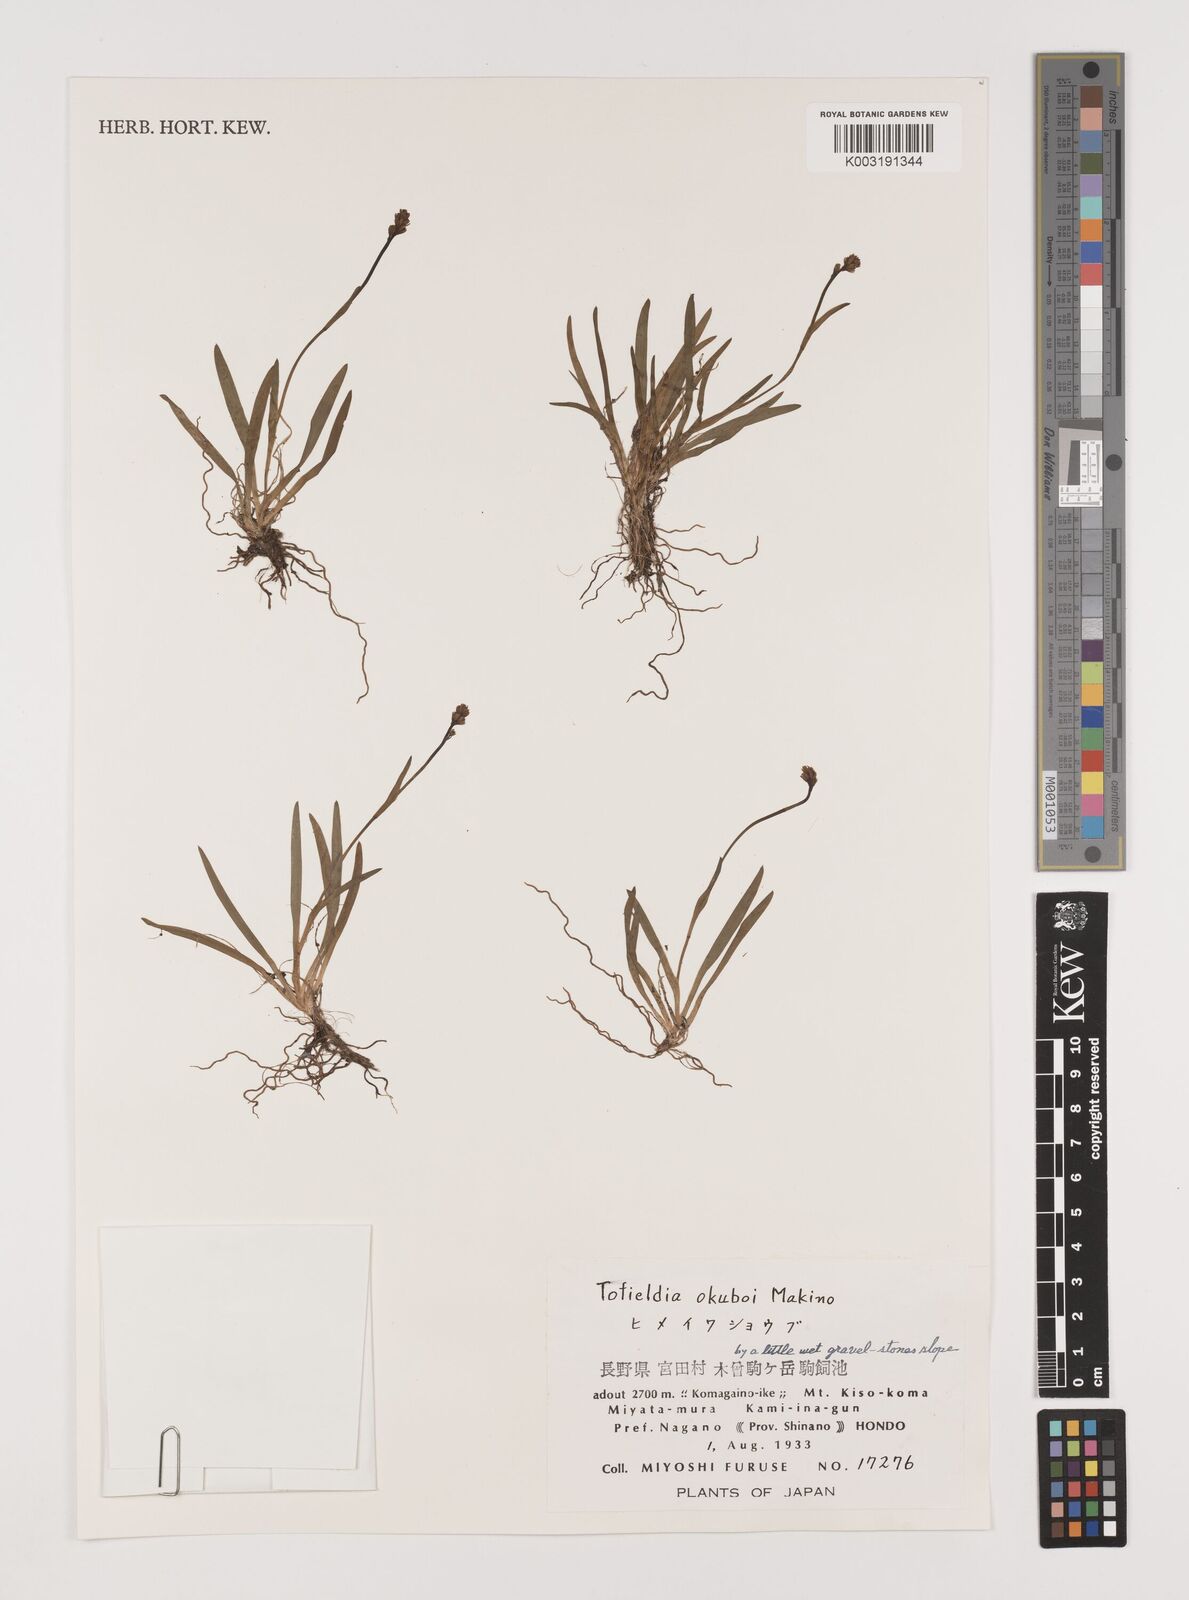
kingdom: Plantae
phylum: Tracheophyta
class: Liliopsida
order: Alismatales
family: Tofieldiaceae
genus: Tofieldia
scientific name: Tofieldia okuboi
